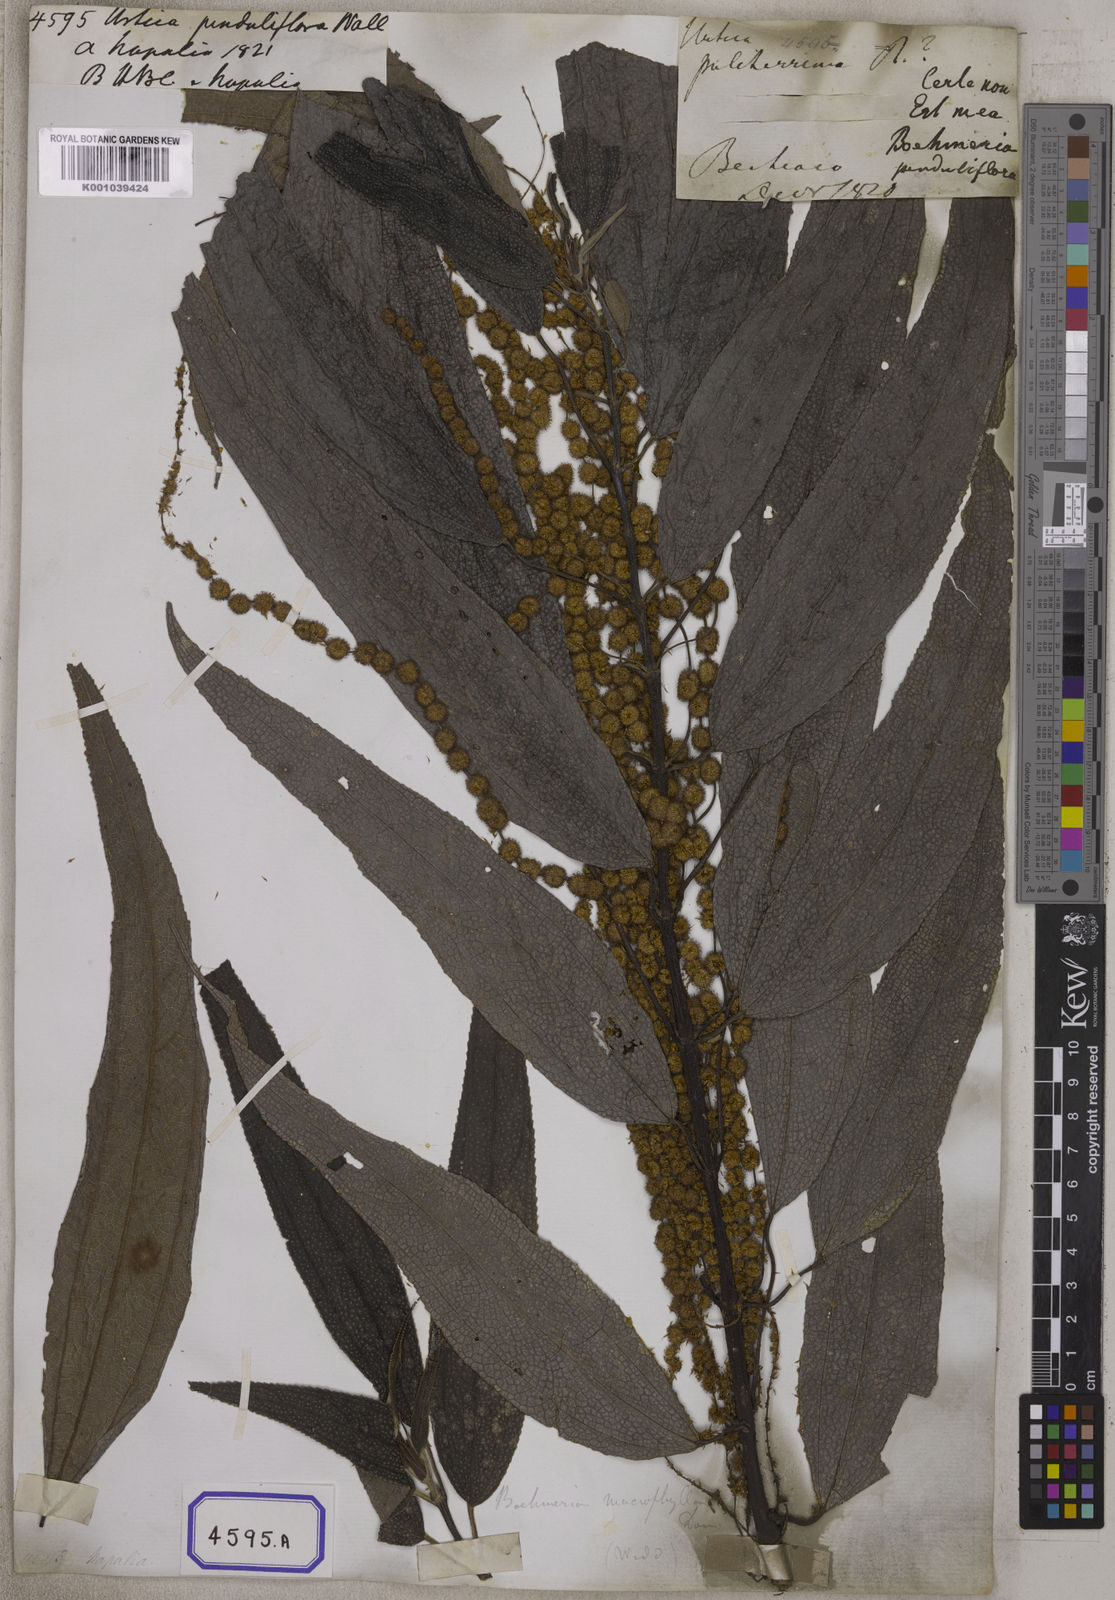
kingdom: Plantae
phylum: Tracheophyta
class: Magnoliopsida
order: Rosales
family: Urticaceae
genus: Boehmeria
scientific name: Boehmeria penduliflora
